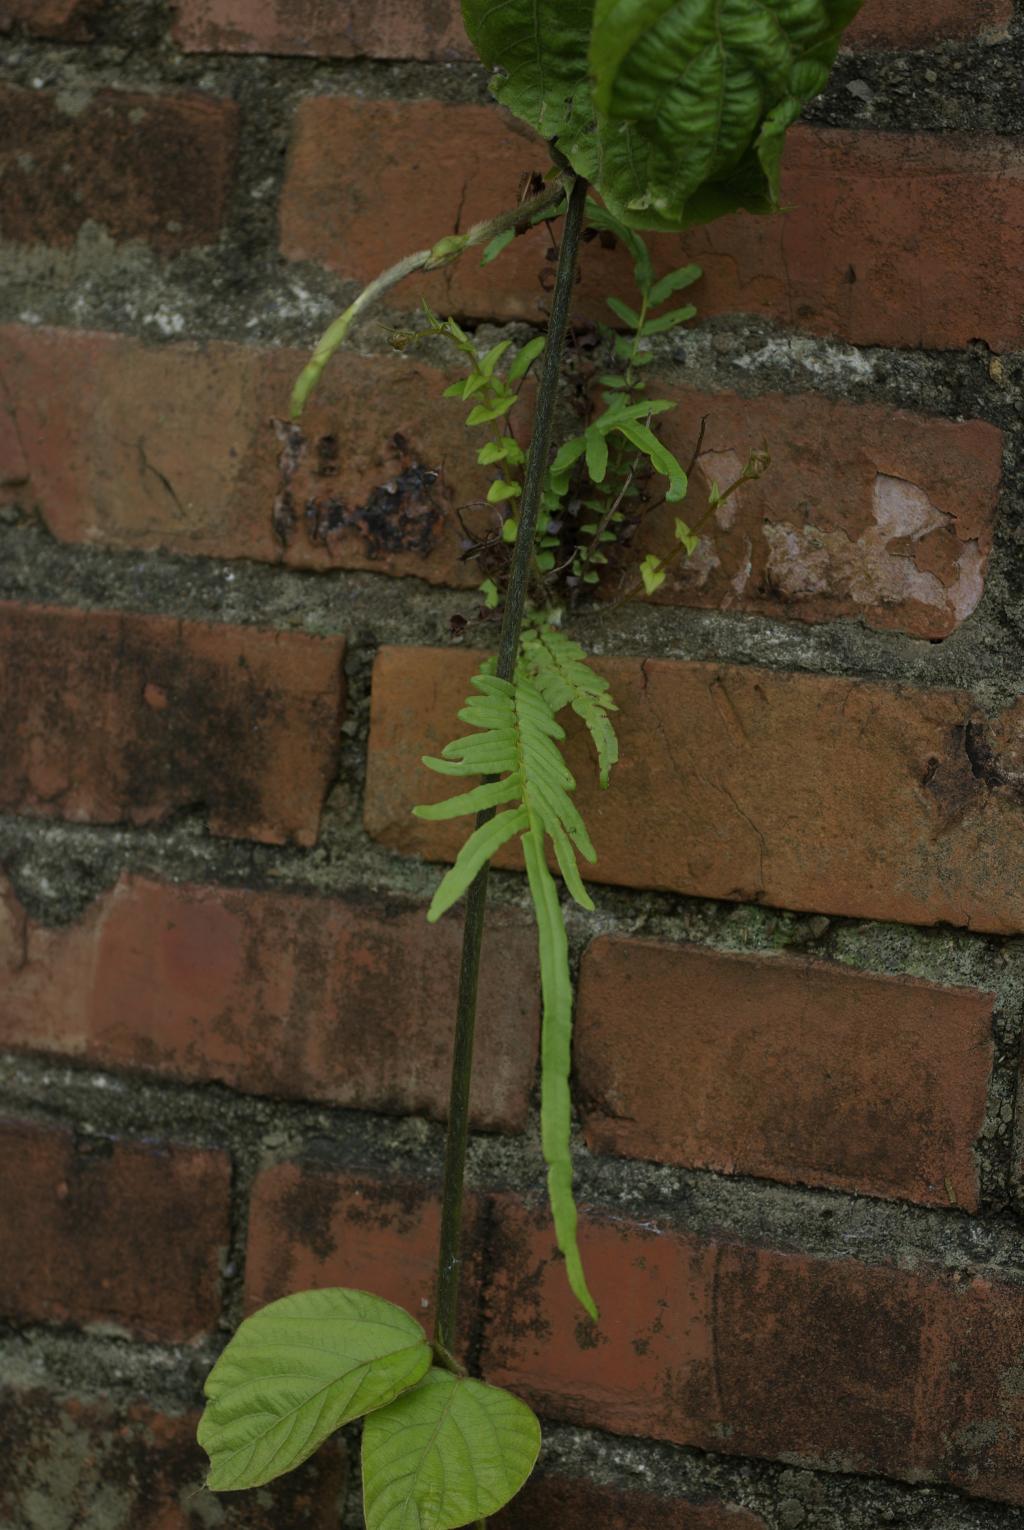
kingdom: Plantae
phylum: Tracheophyta
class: Polypodiopsida
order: Polypodiales
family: Pteridaceae
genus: Pteris
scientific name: Pteris vittata
